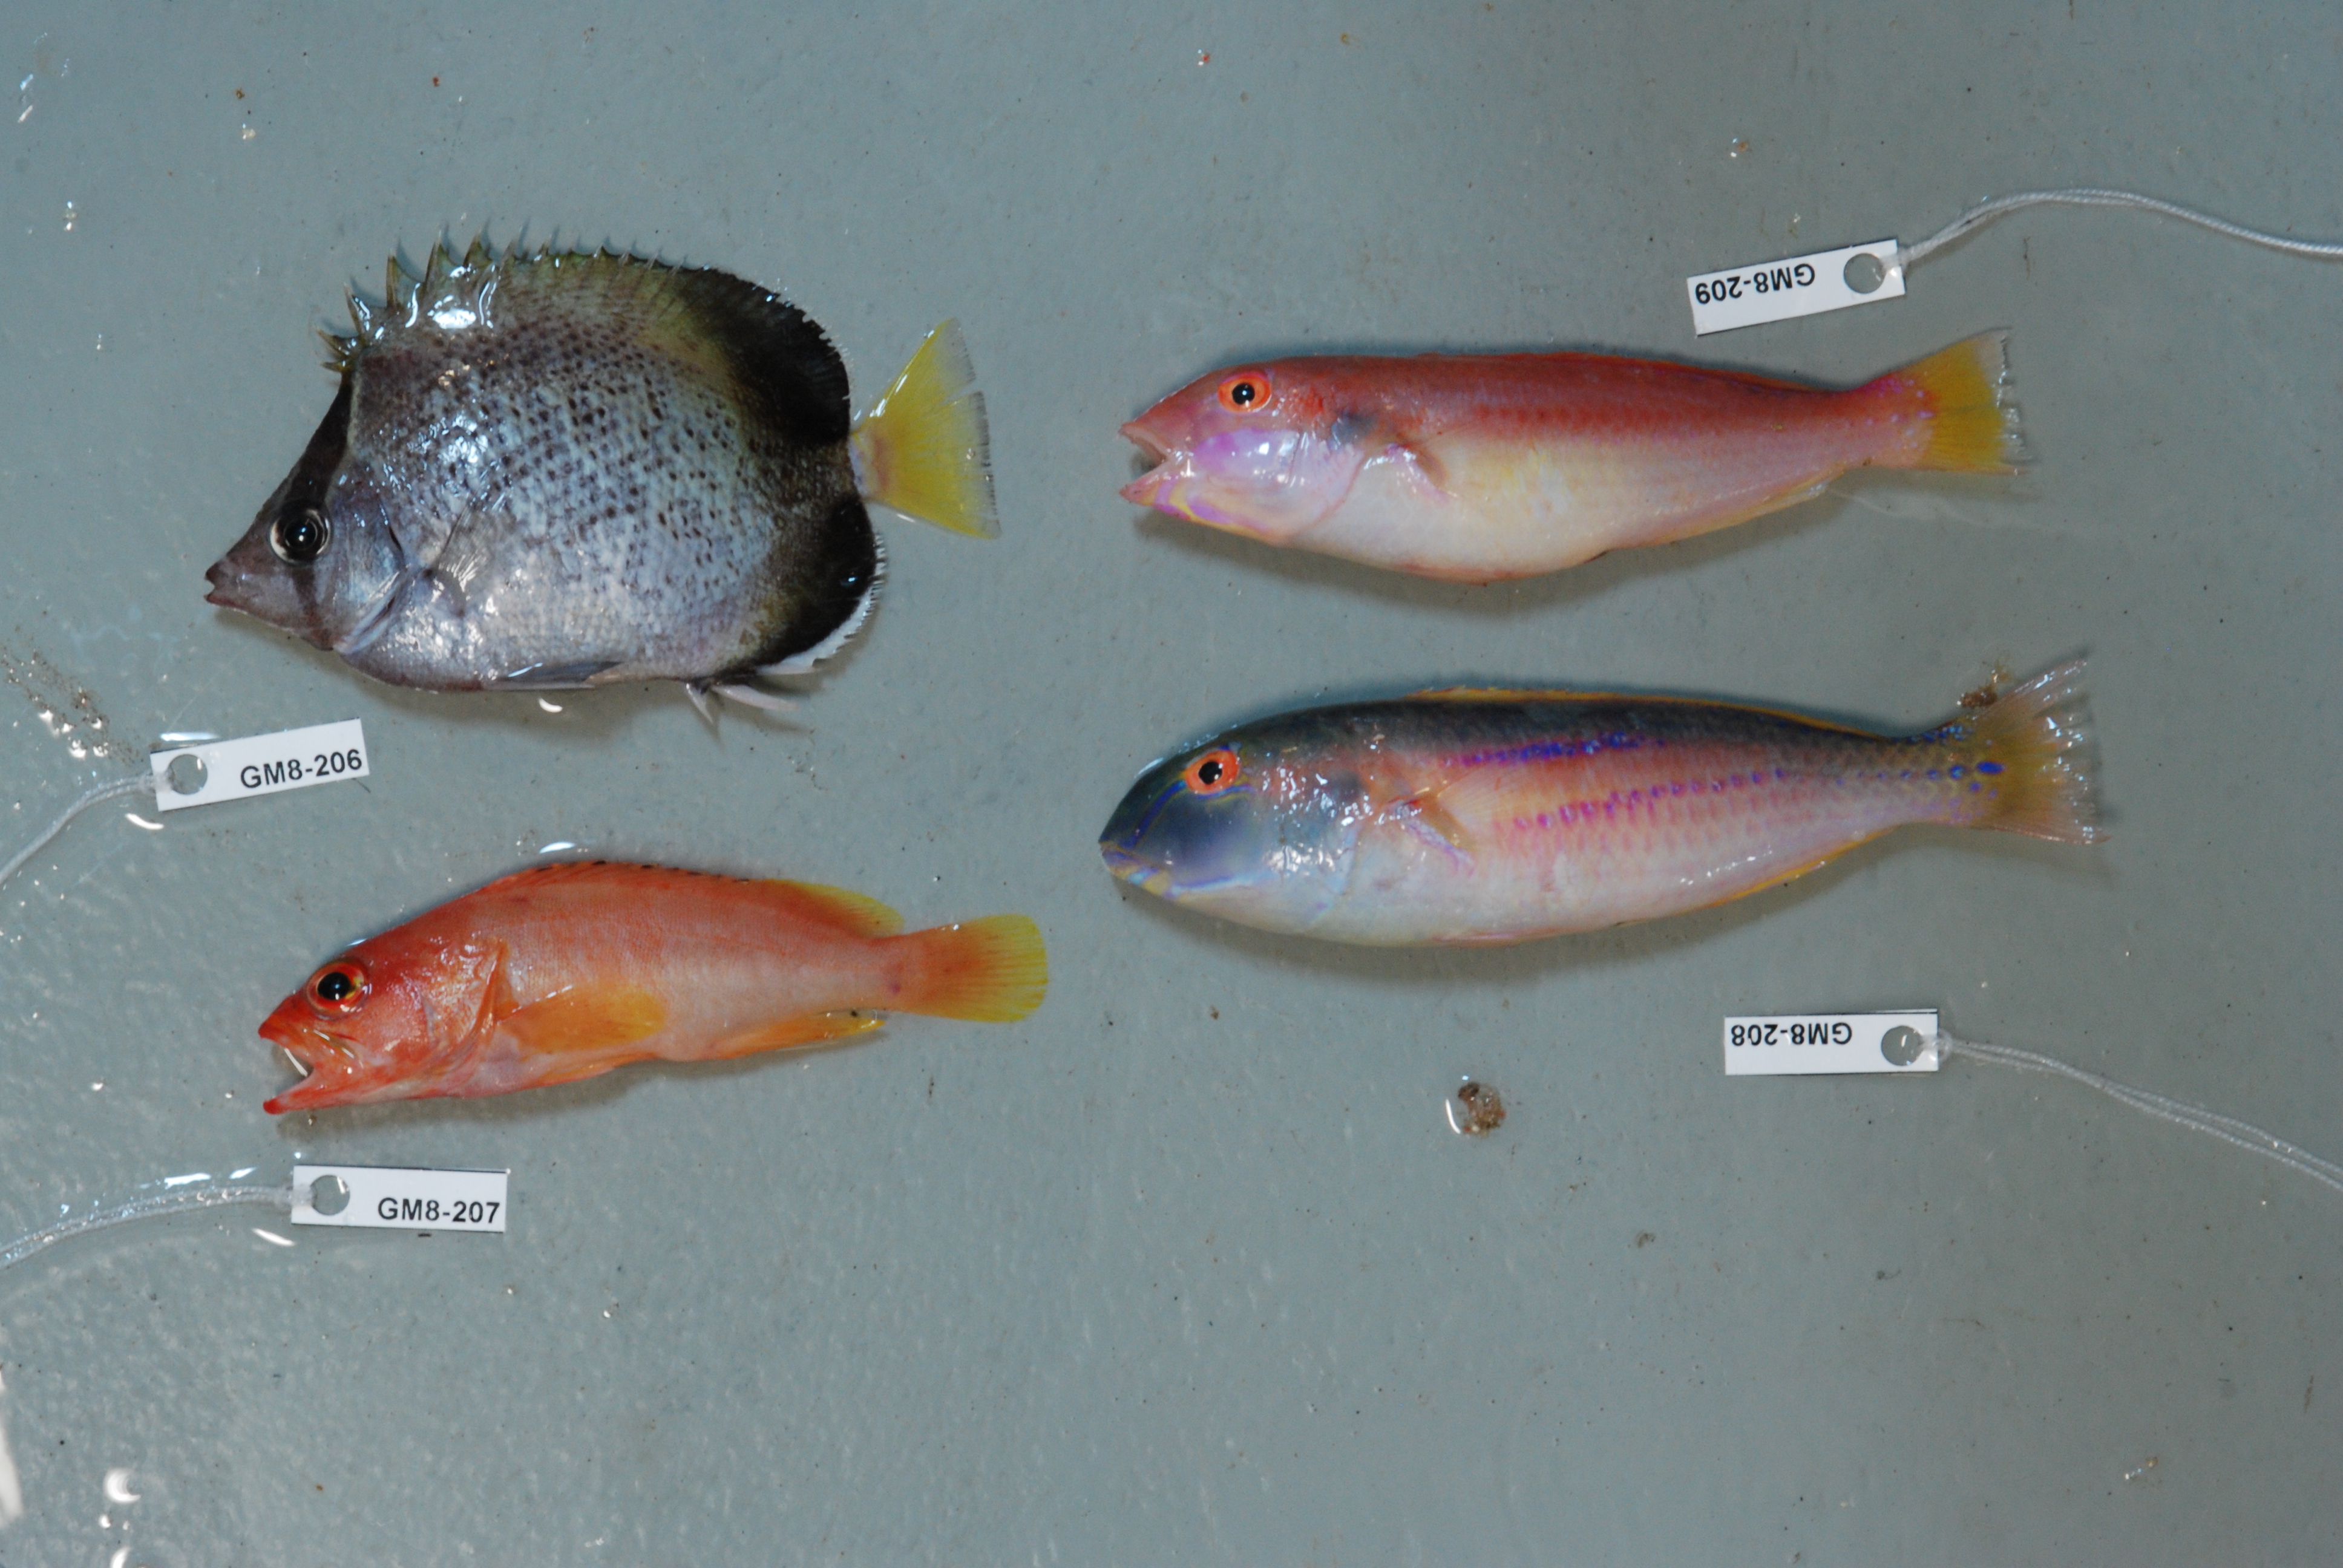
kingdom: Animalia
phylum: Chordata
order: Perciformes
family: Chaetodontidae
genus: Chaetodon
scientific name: Chaetodon dolosus
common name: African butterflyfish
